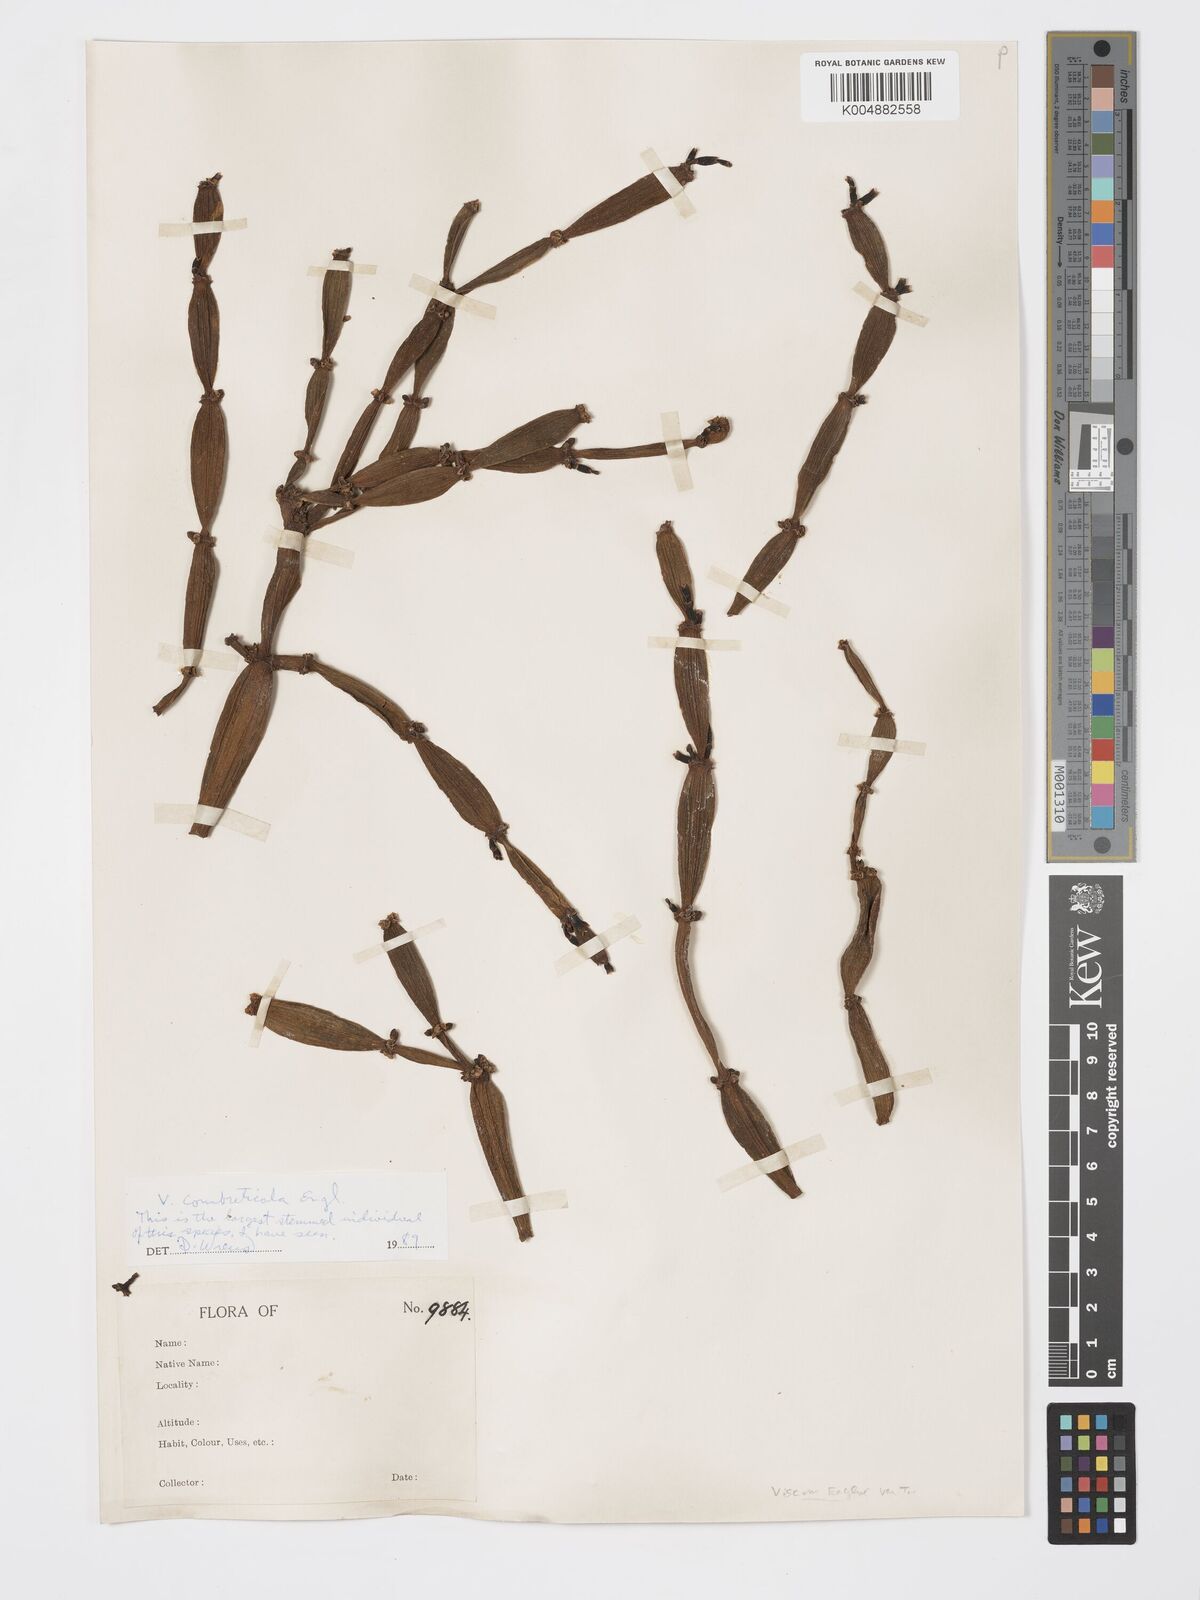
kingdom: Plantae
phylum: Tracheophyta
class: Magnoliopsida
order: Santalales
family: Viscaceae
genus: Viscum
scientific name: Viscum combreticola
